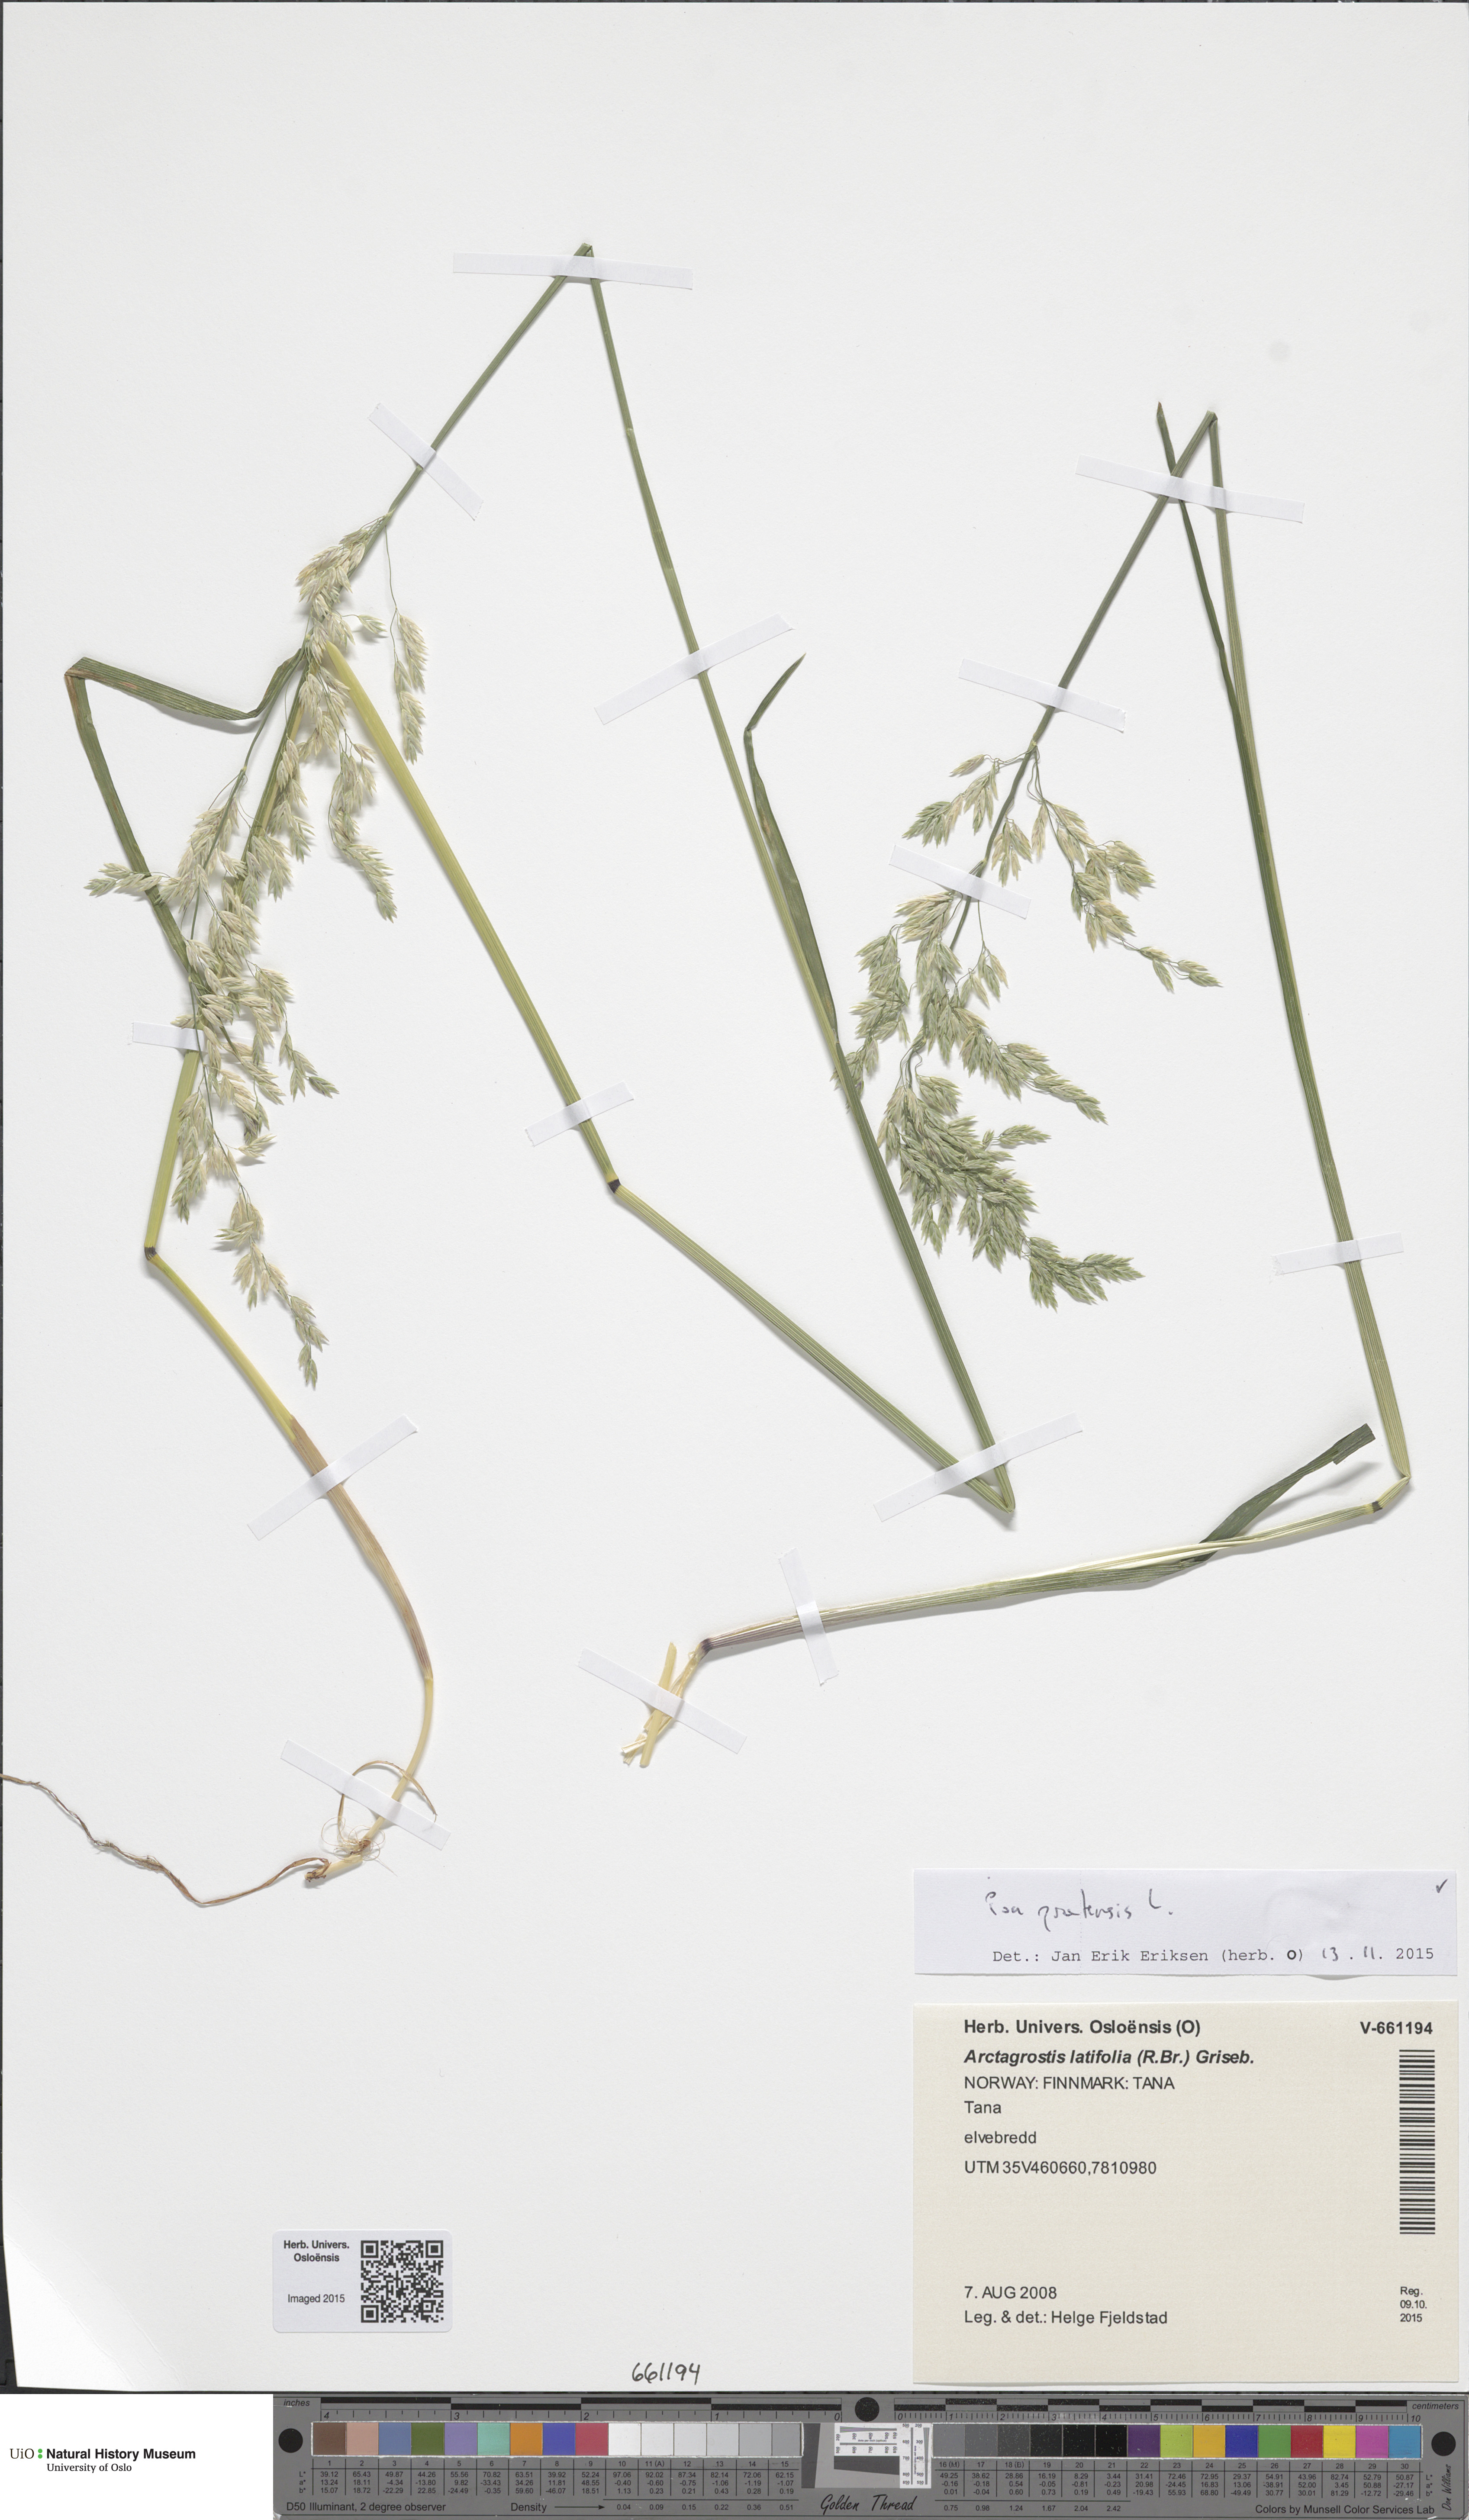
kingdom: Plantae
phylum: Tracheophyta
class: Liliopsida
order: Poales
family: Poaceae
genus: Poa
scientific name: Poa pratensis
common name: Kentucky bluegrass
